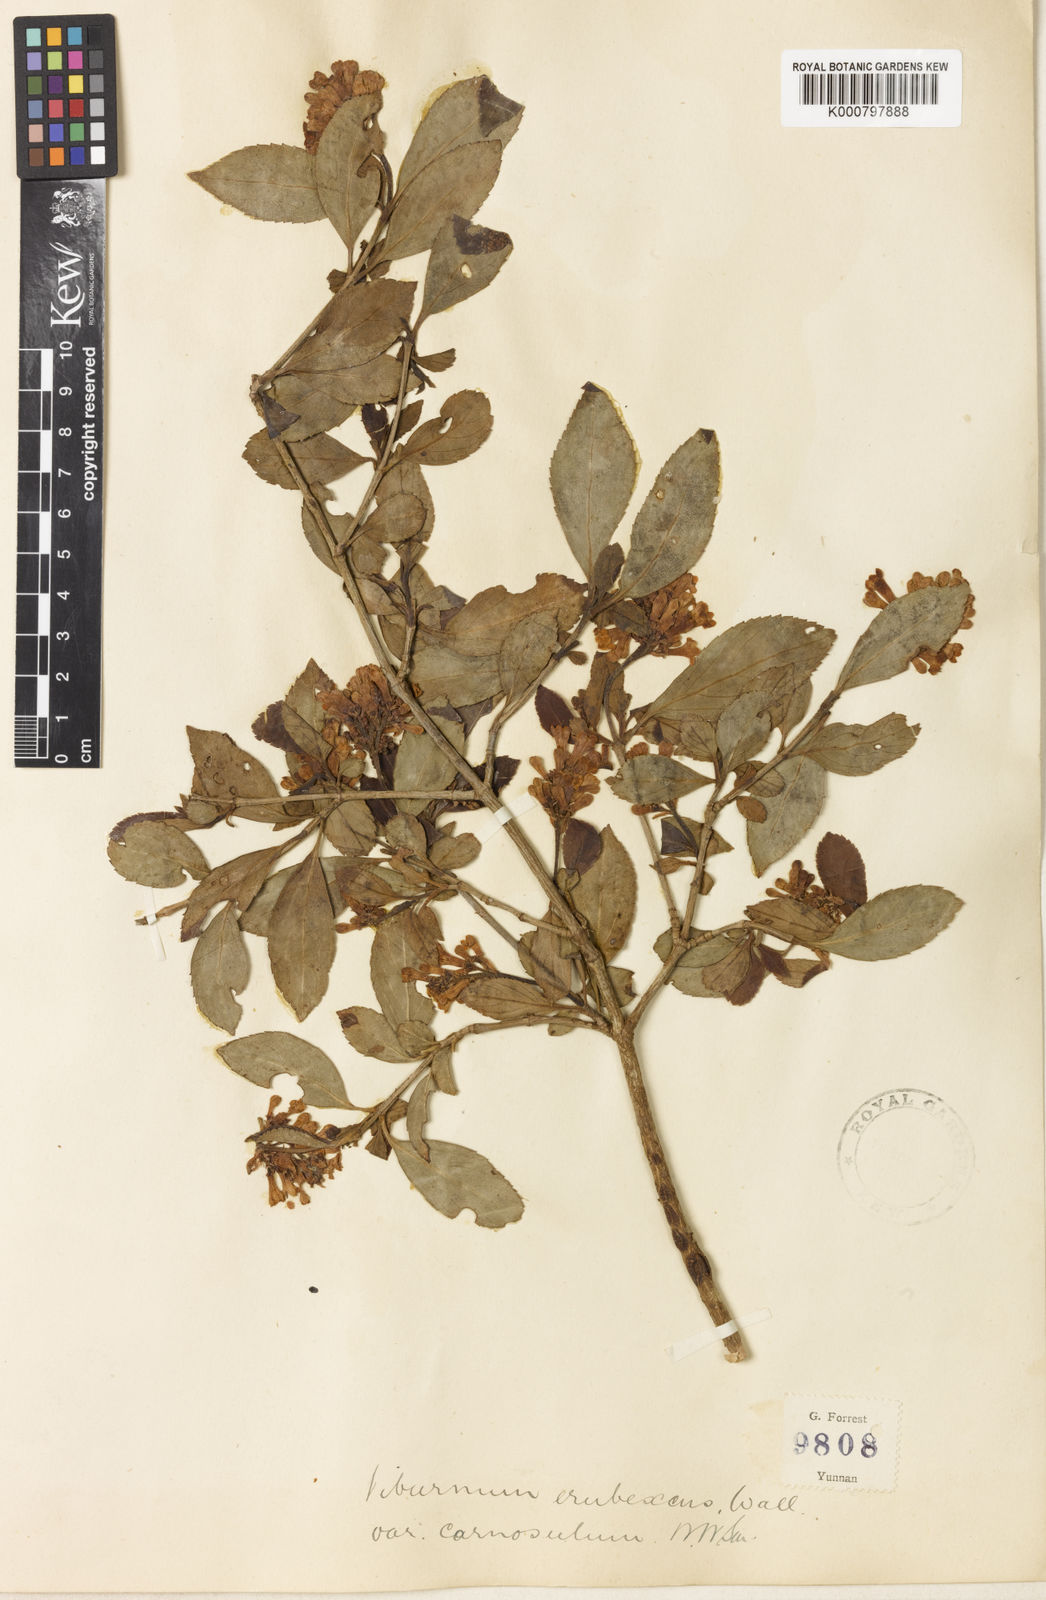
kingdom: Plantae
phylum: Tracheophyta
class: Magnoliopsida
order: Dipsacales
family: Viburnaceae
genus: Viburnum
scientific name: Viburnum
